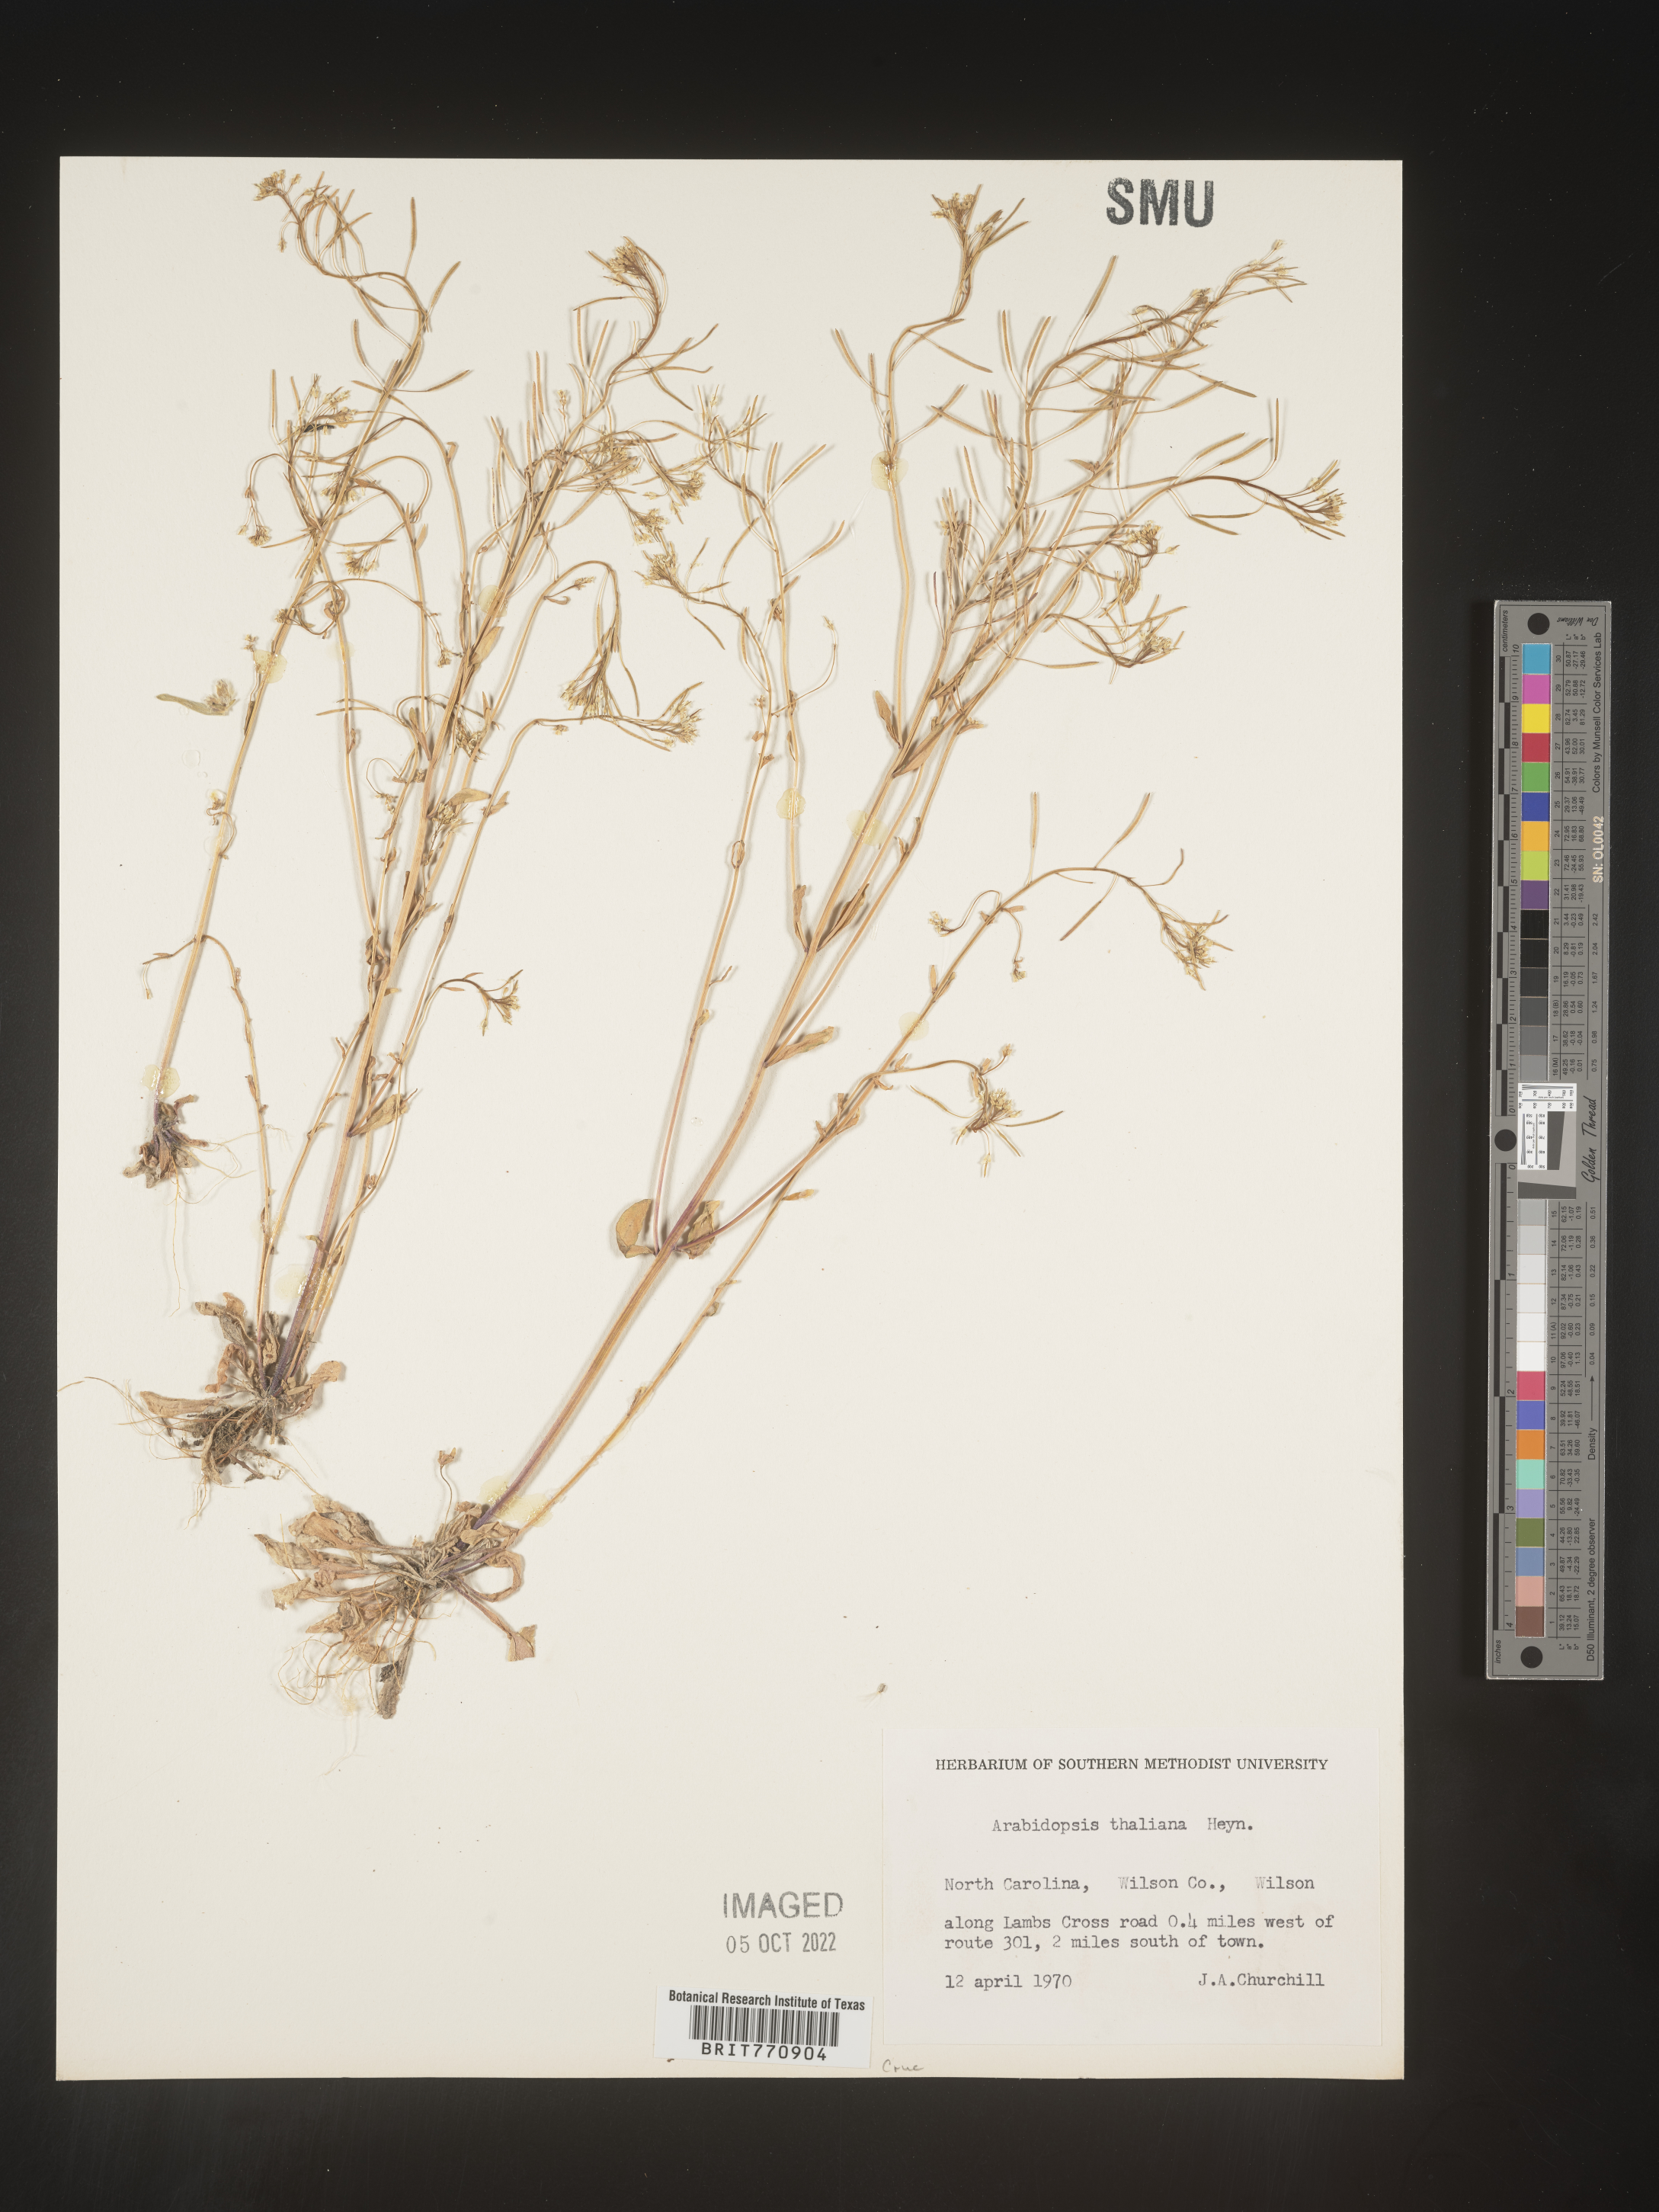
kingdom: Plantae
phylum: Tracheophyta
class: Magnoliopsida
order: Brassicales
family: Brassicaceae
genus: Arabidopsis
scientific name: Arabidopsis thaliana
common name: Thale cress
